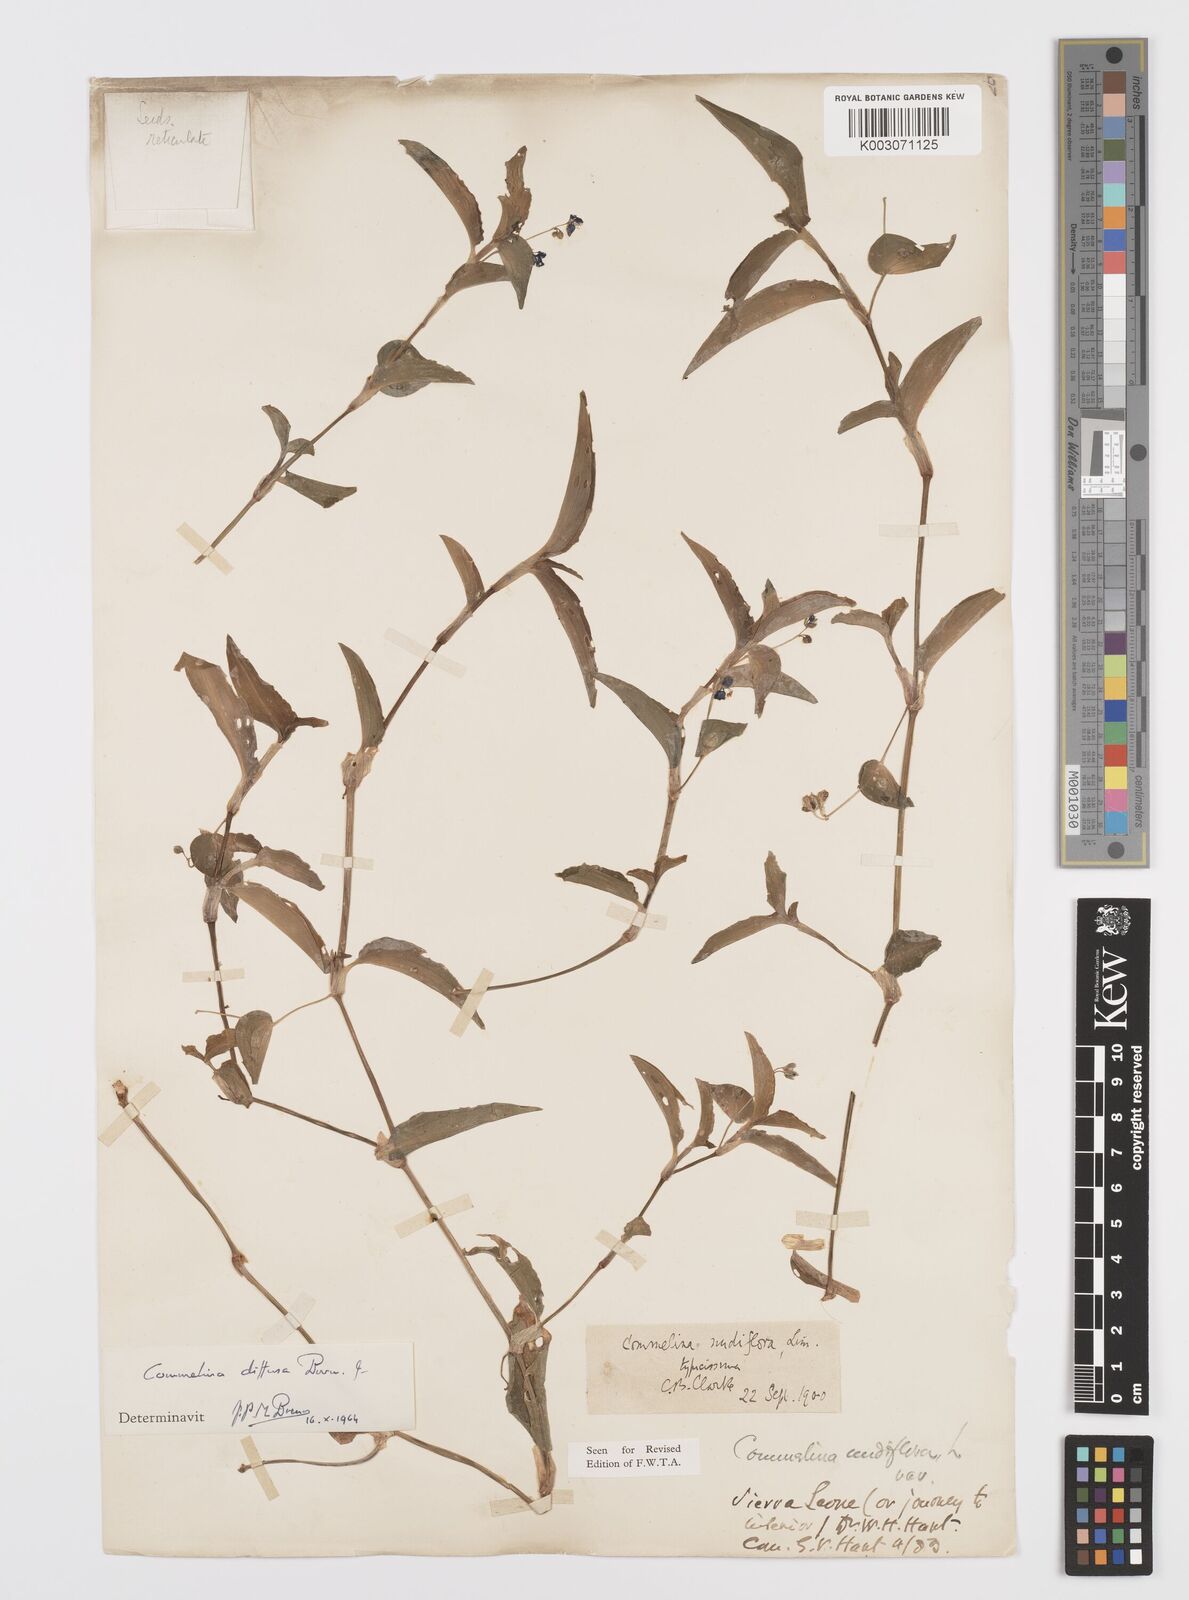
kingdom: Plantae
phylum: Tracheophyta
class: Liliopsida
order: Commelinales
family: Commelinaceae
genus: Commelina
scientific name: Commelina diffusa
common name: Climbing dayflower
